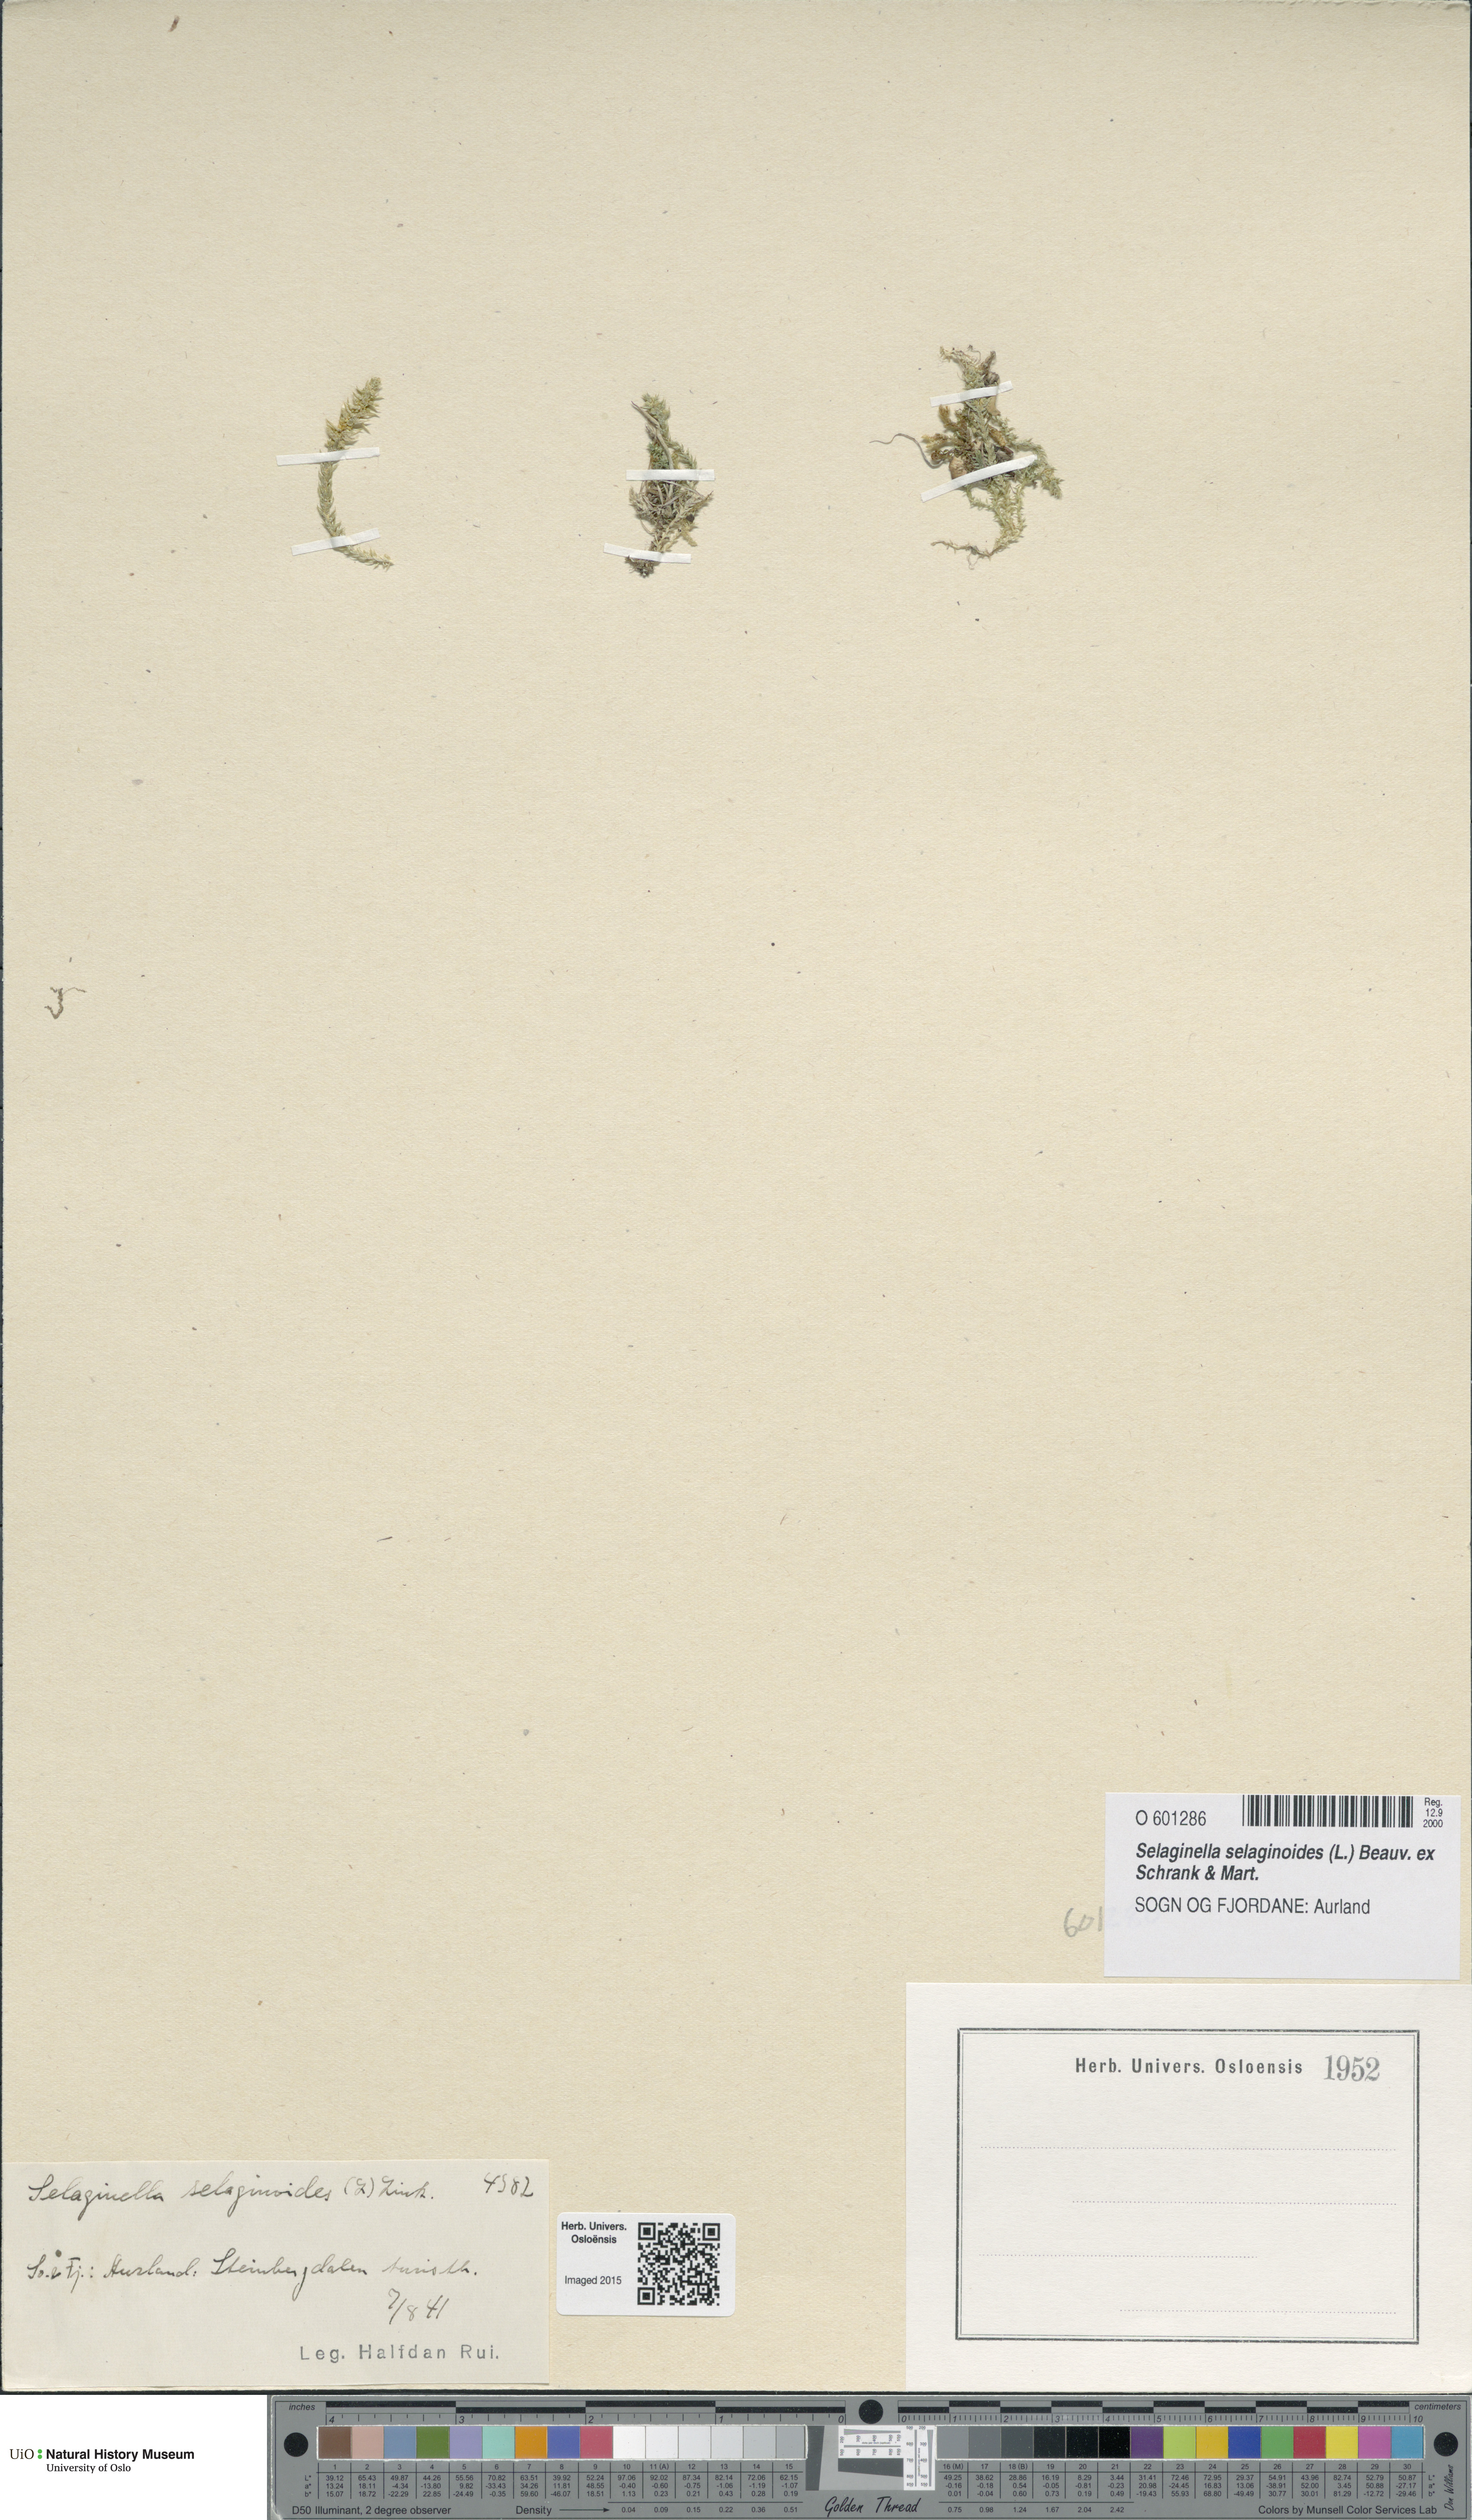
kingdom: Plantae
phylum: Tracheophyta
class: Lycopodiopsida
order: Selaginellales
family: Selaginellaceae
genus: Selaginella
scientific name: Selaginella selaginoides
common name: Prickly mountain-moss
